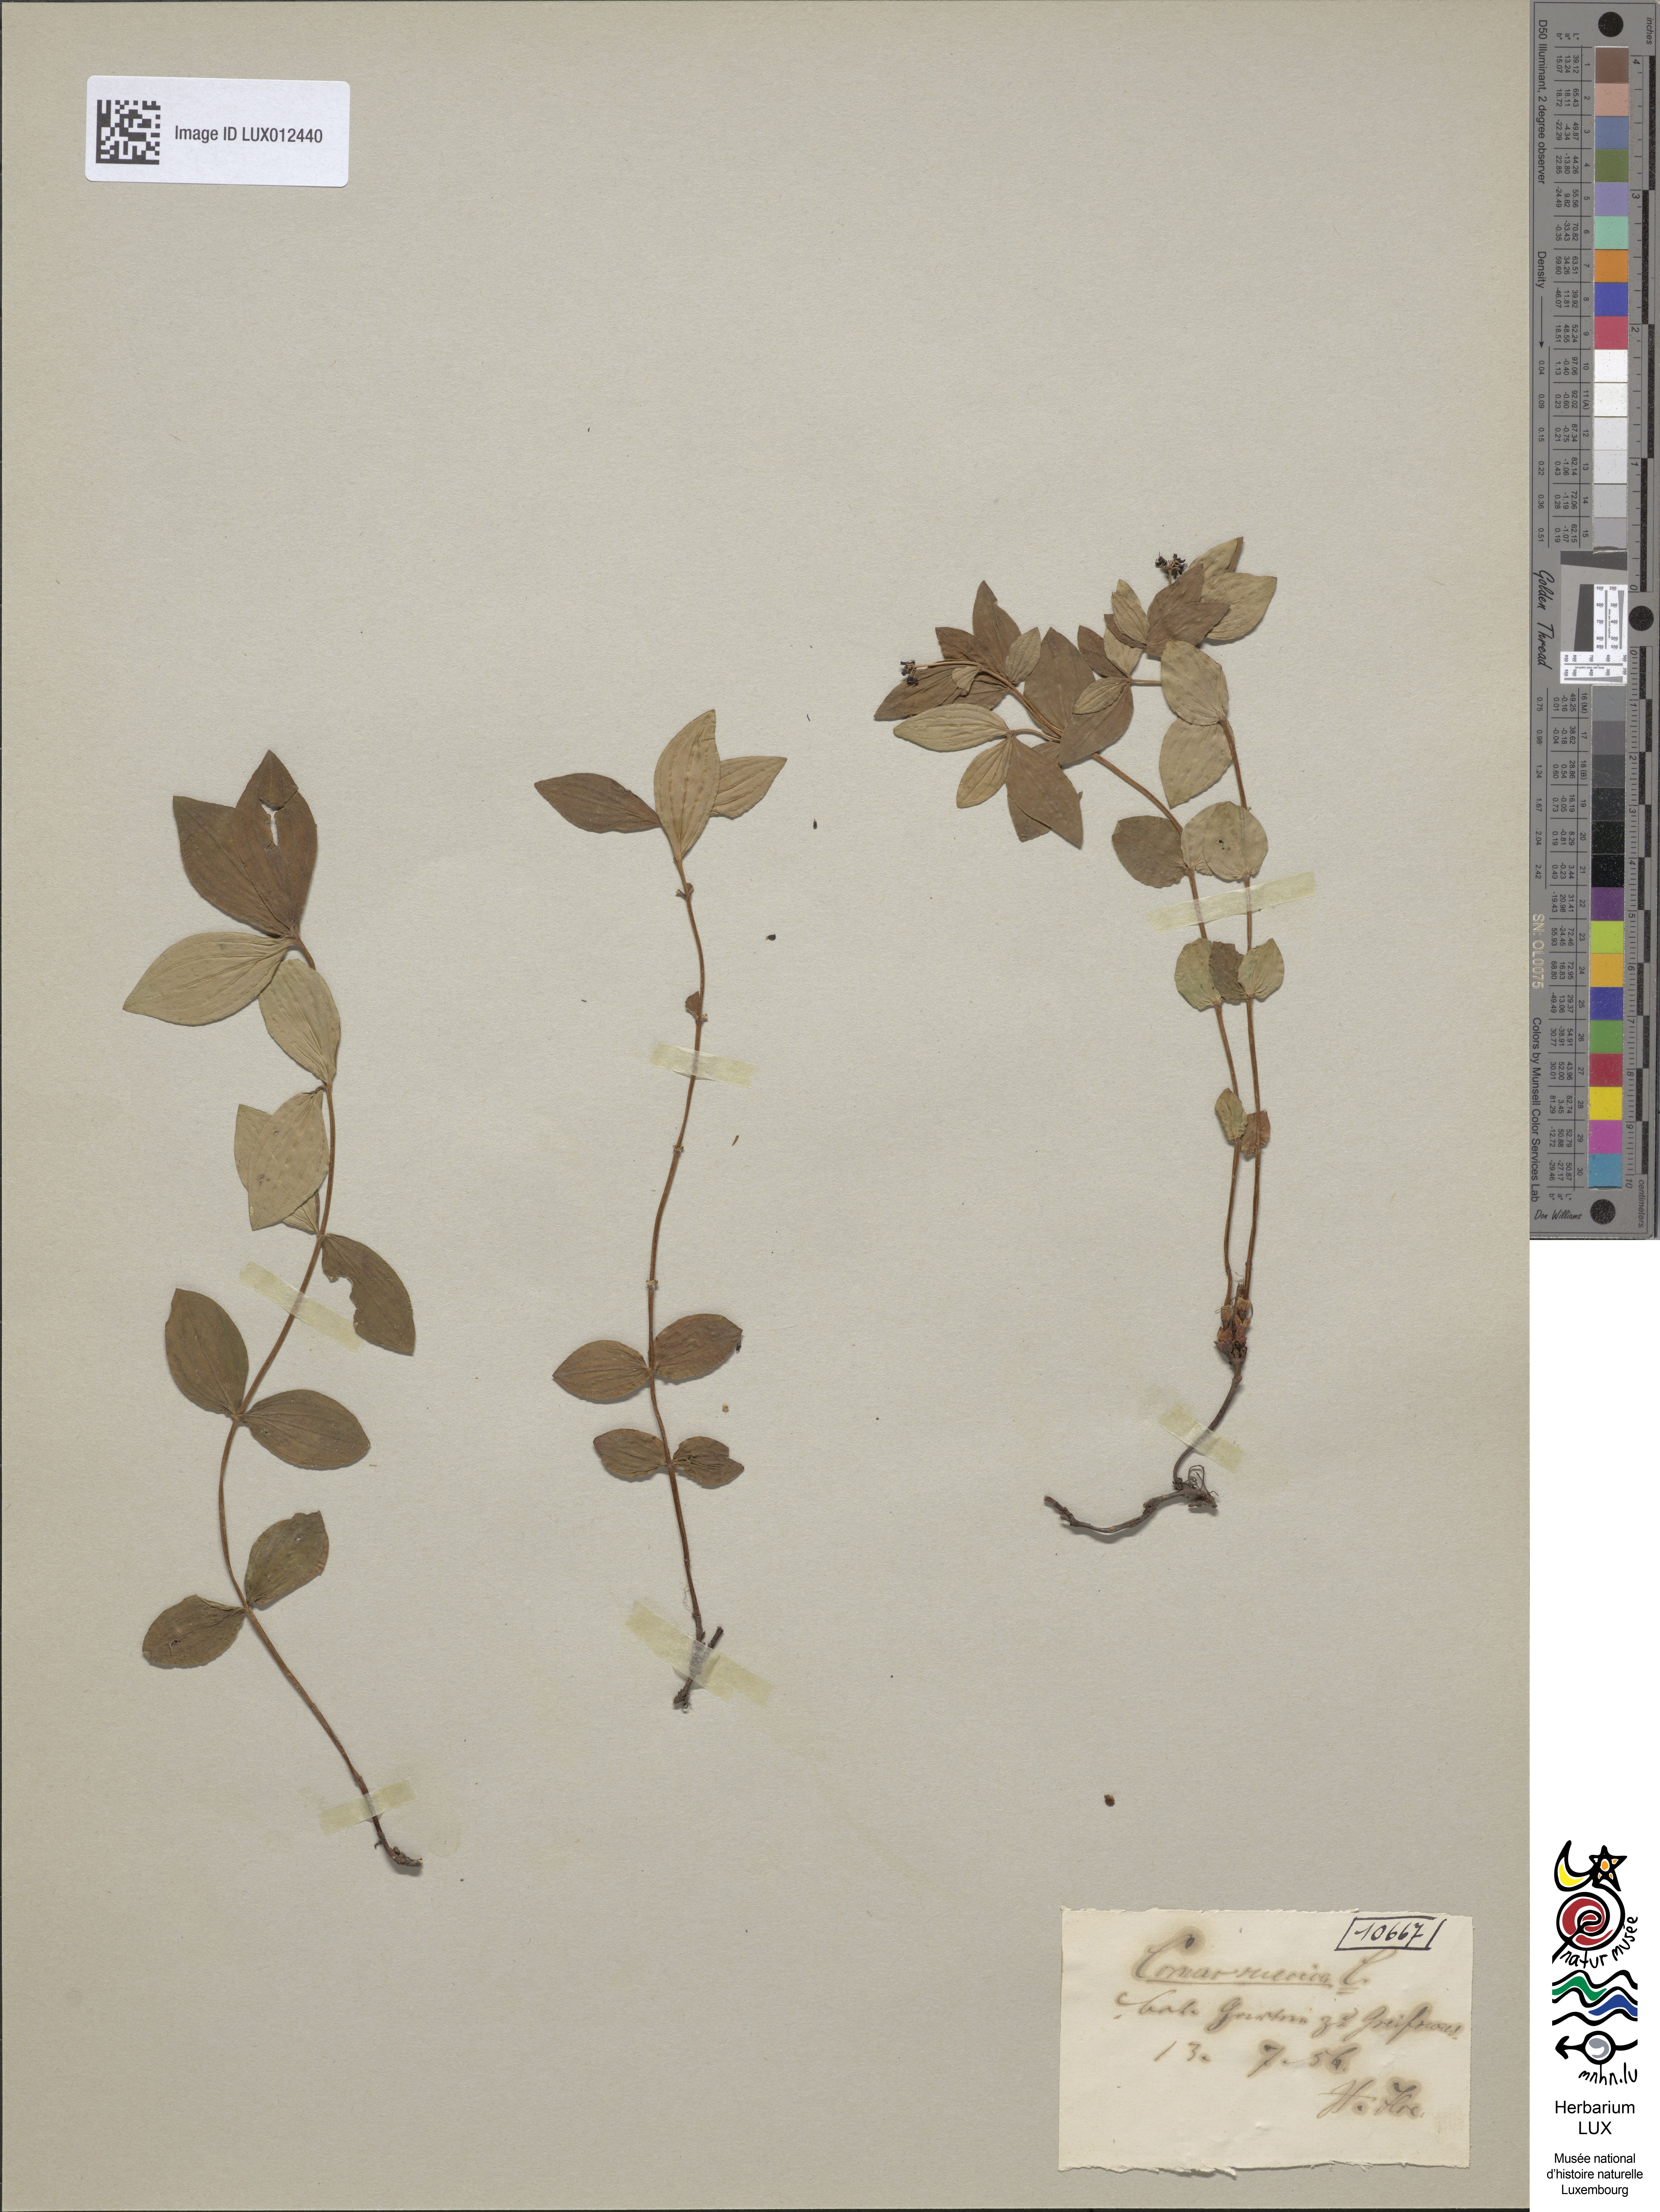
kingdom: Plantae
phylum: Tracheophyta
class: Magnoliopsida
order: Cornales
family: Cornaceae
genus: Cornus
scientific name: Cornus suecica
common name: Dwarf cornel
